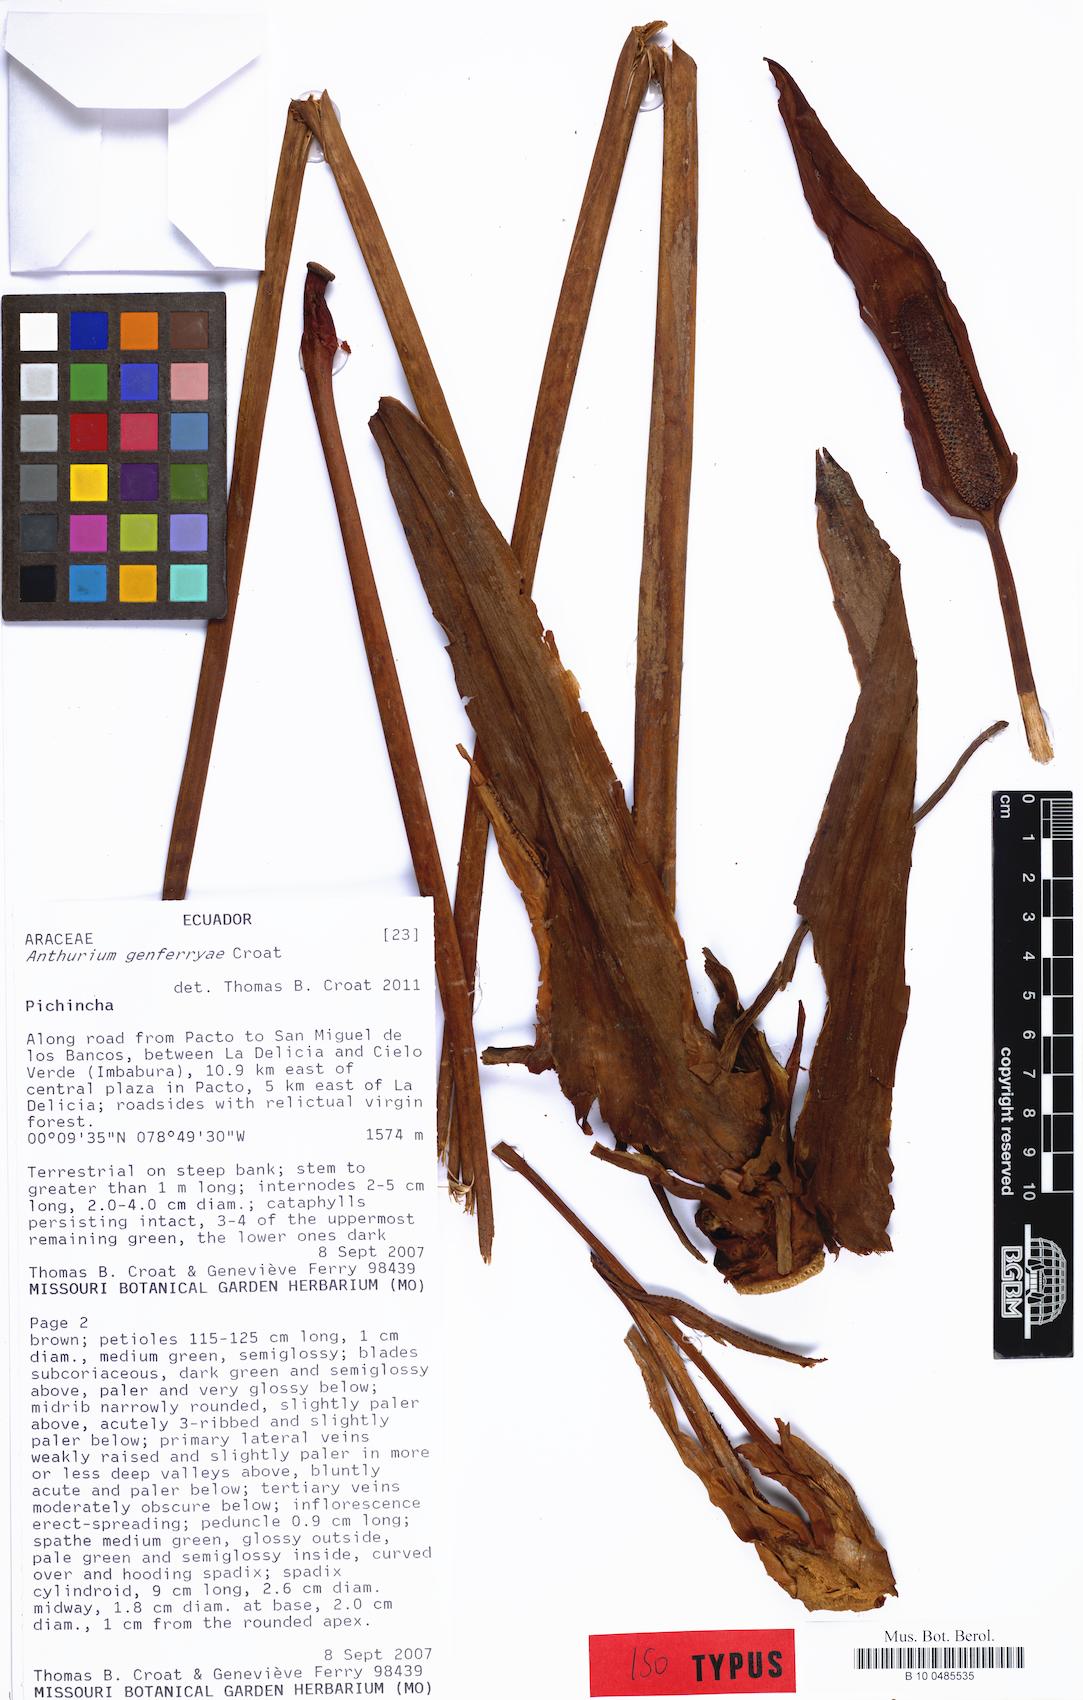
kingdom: Plantae
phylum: Tracheophyta
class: Liliopsida
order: Alismatales
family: Araceae
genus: Anthurium
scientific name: Anthurium genferryae
